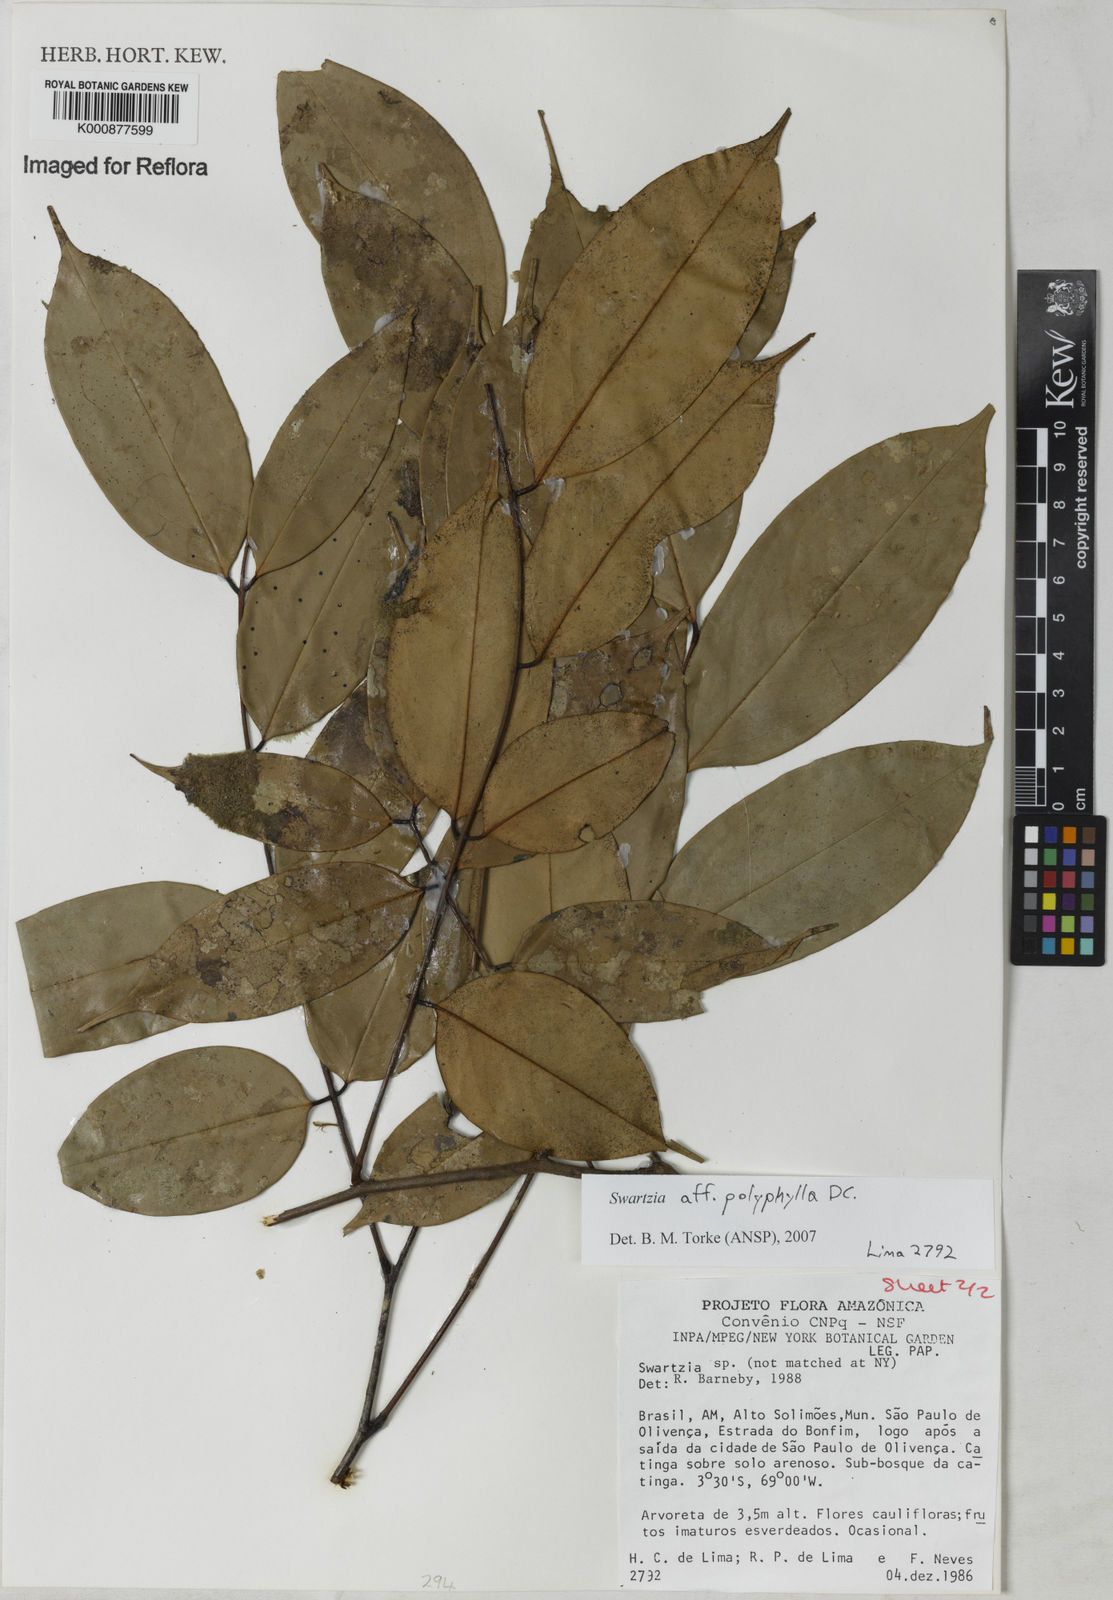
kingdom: Plantae
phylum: Tracheophyta
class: Magnoliopsida
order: Fabales
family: Fabaceae
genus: Swartzia
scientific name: Swartzia polyphylla
